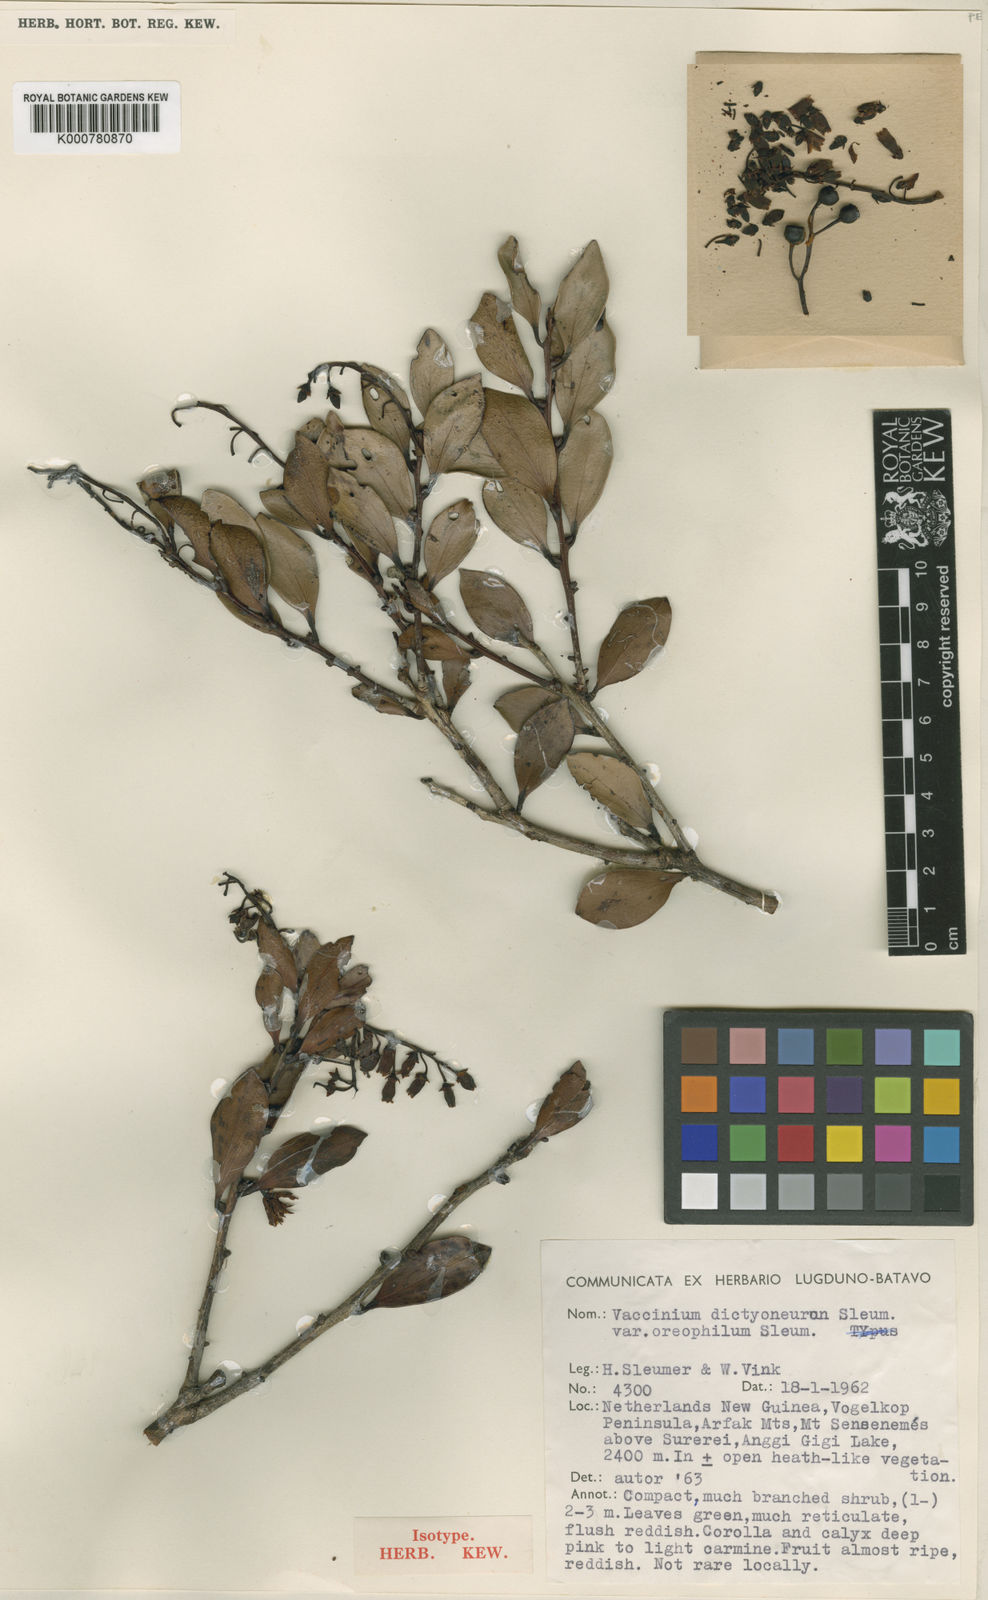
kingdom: Plantae
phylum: Tracheophyta
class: Magnoliopsida
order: Ericales
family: Ericaceae
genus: Vaccinium
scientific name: Vaccinium dictyoneuron
